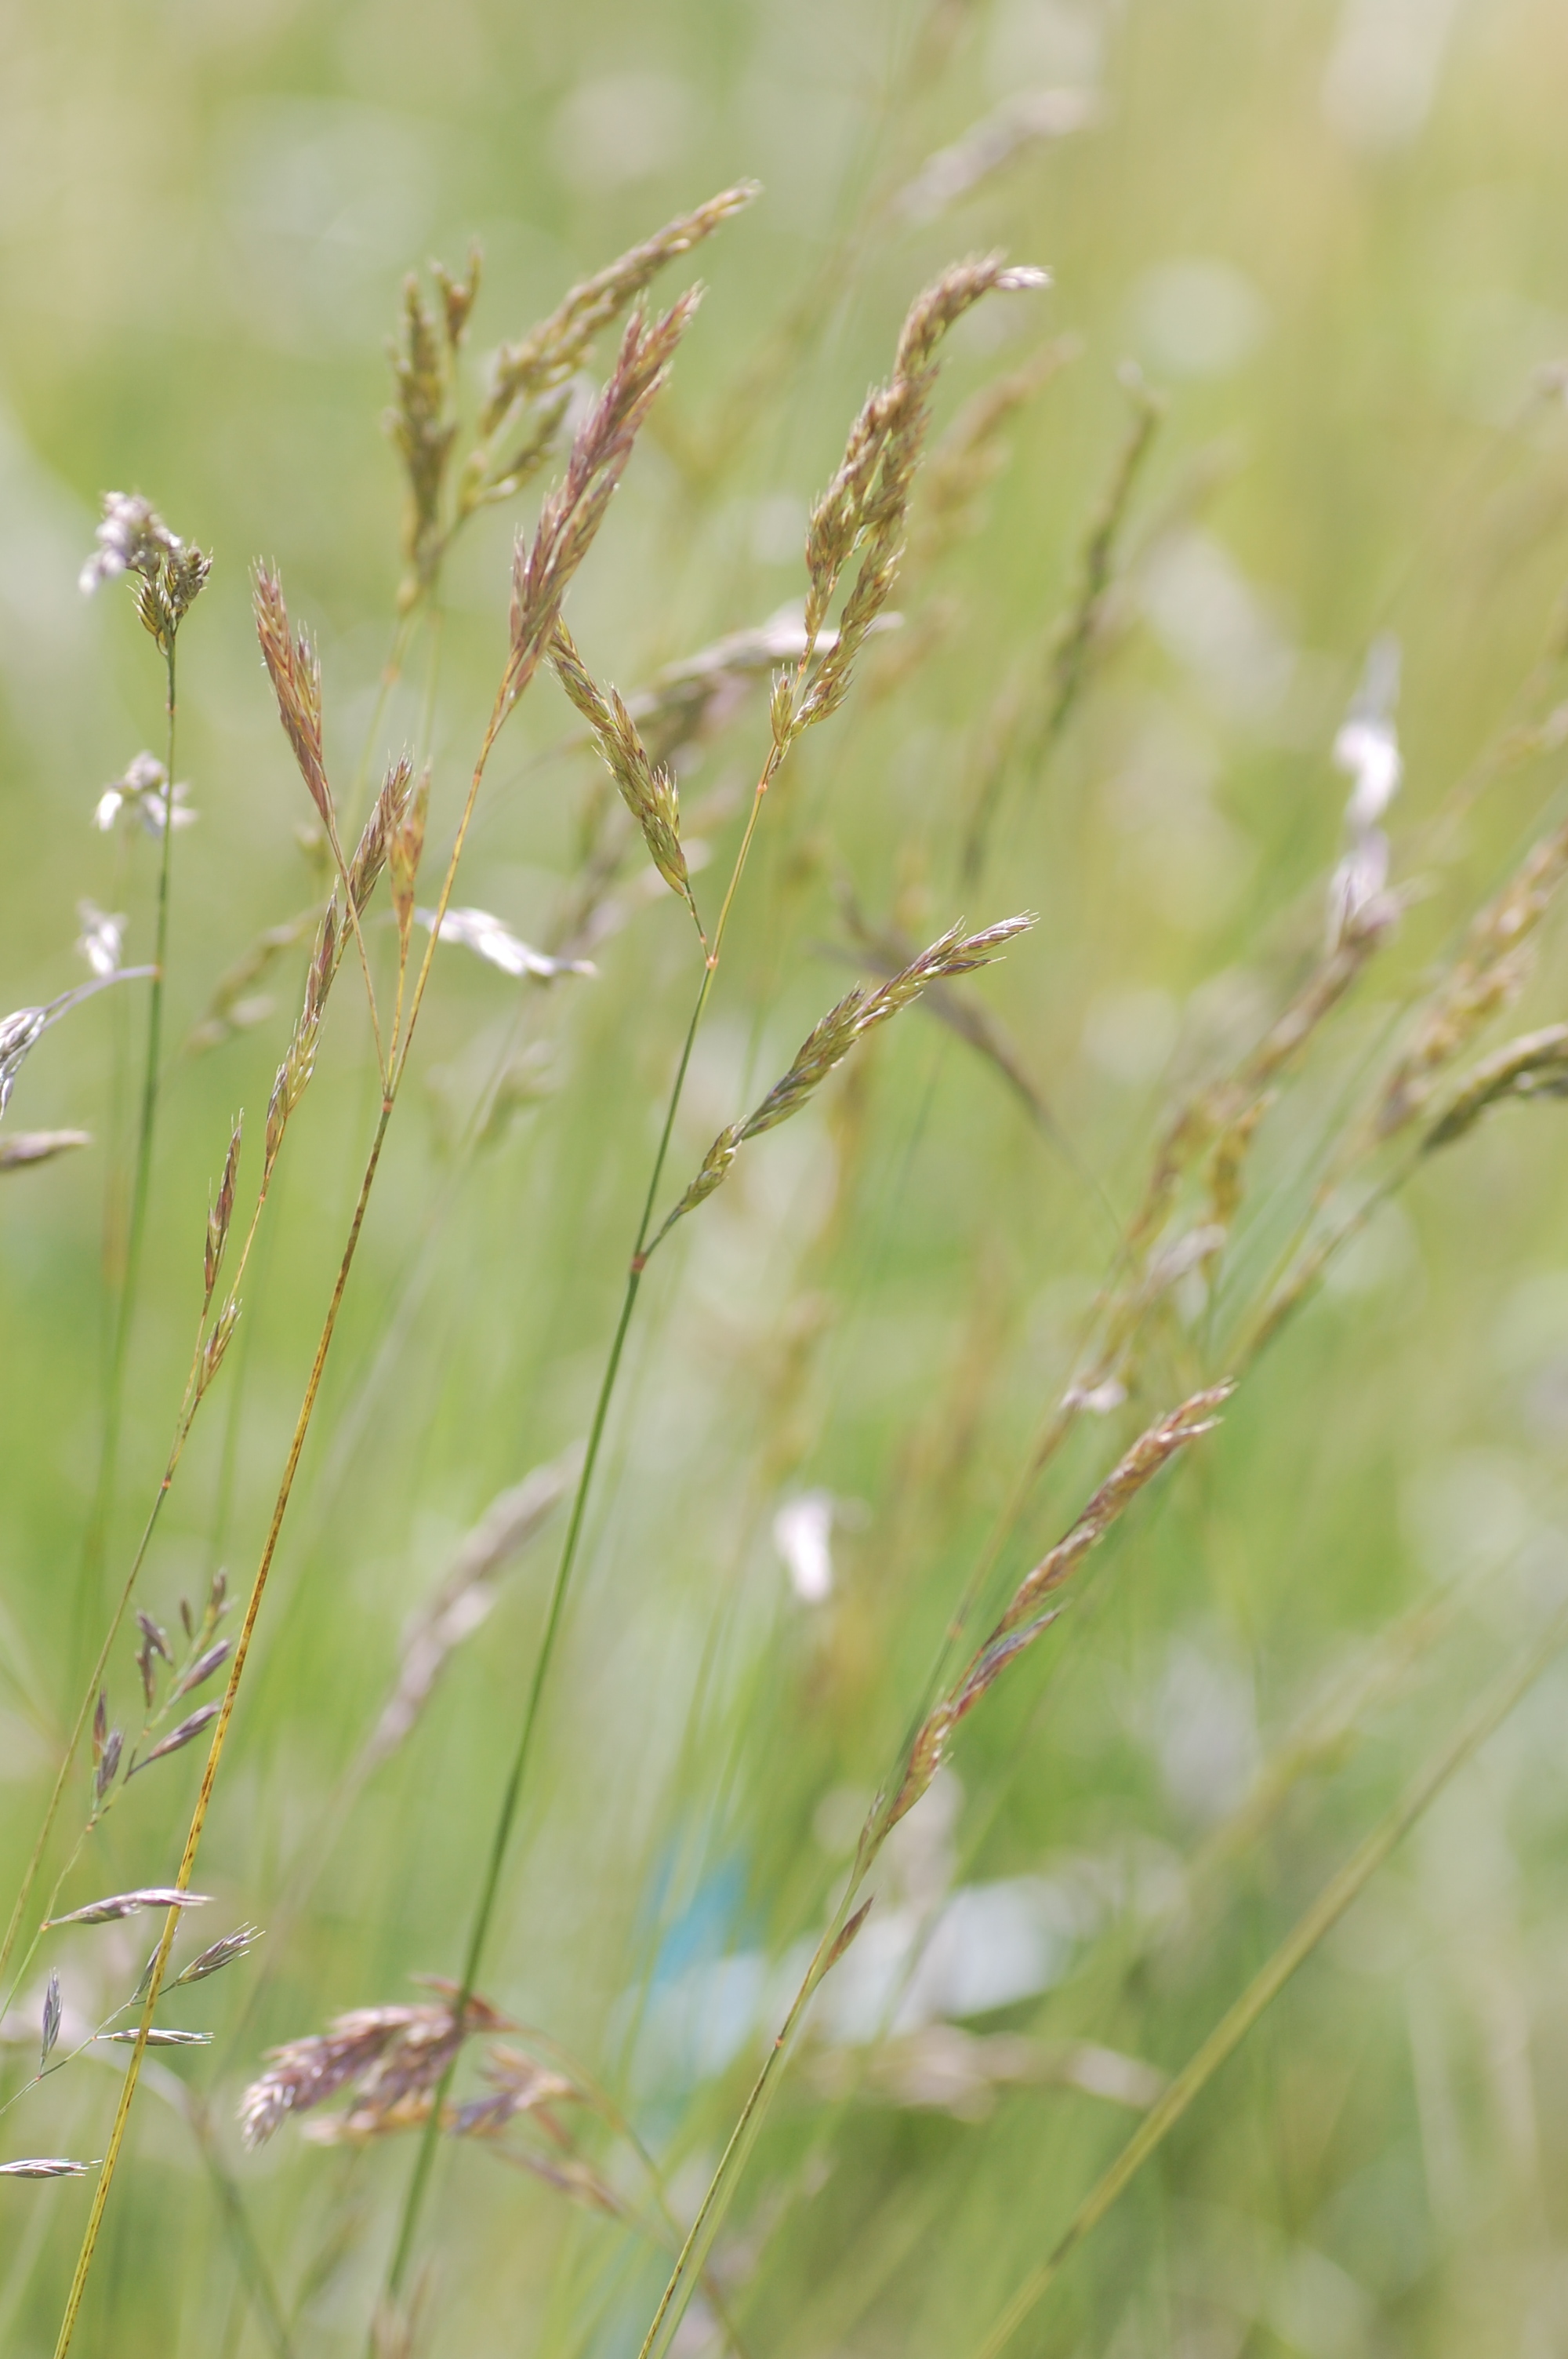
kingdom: Plantae
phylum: Tracheophyta
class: Liliopsida
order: Poales
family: Poaceae
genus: Festuca
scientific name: Festuca rubra
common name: Red fescue
